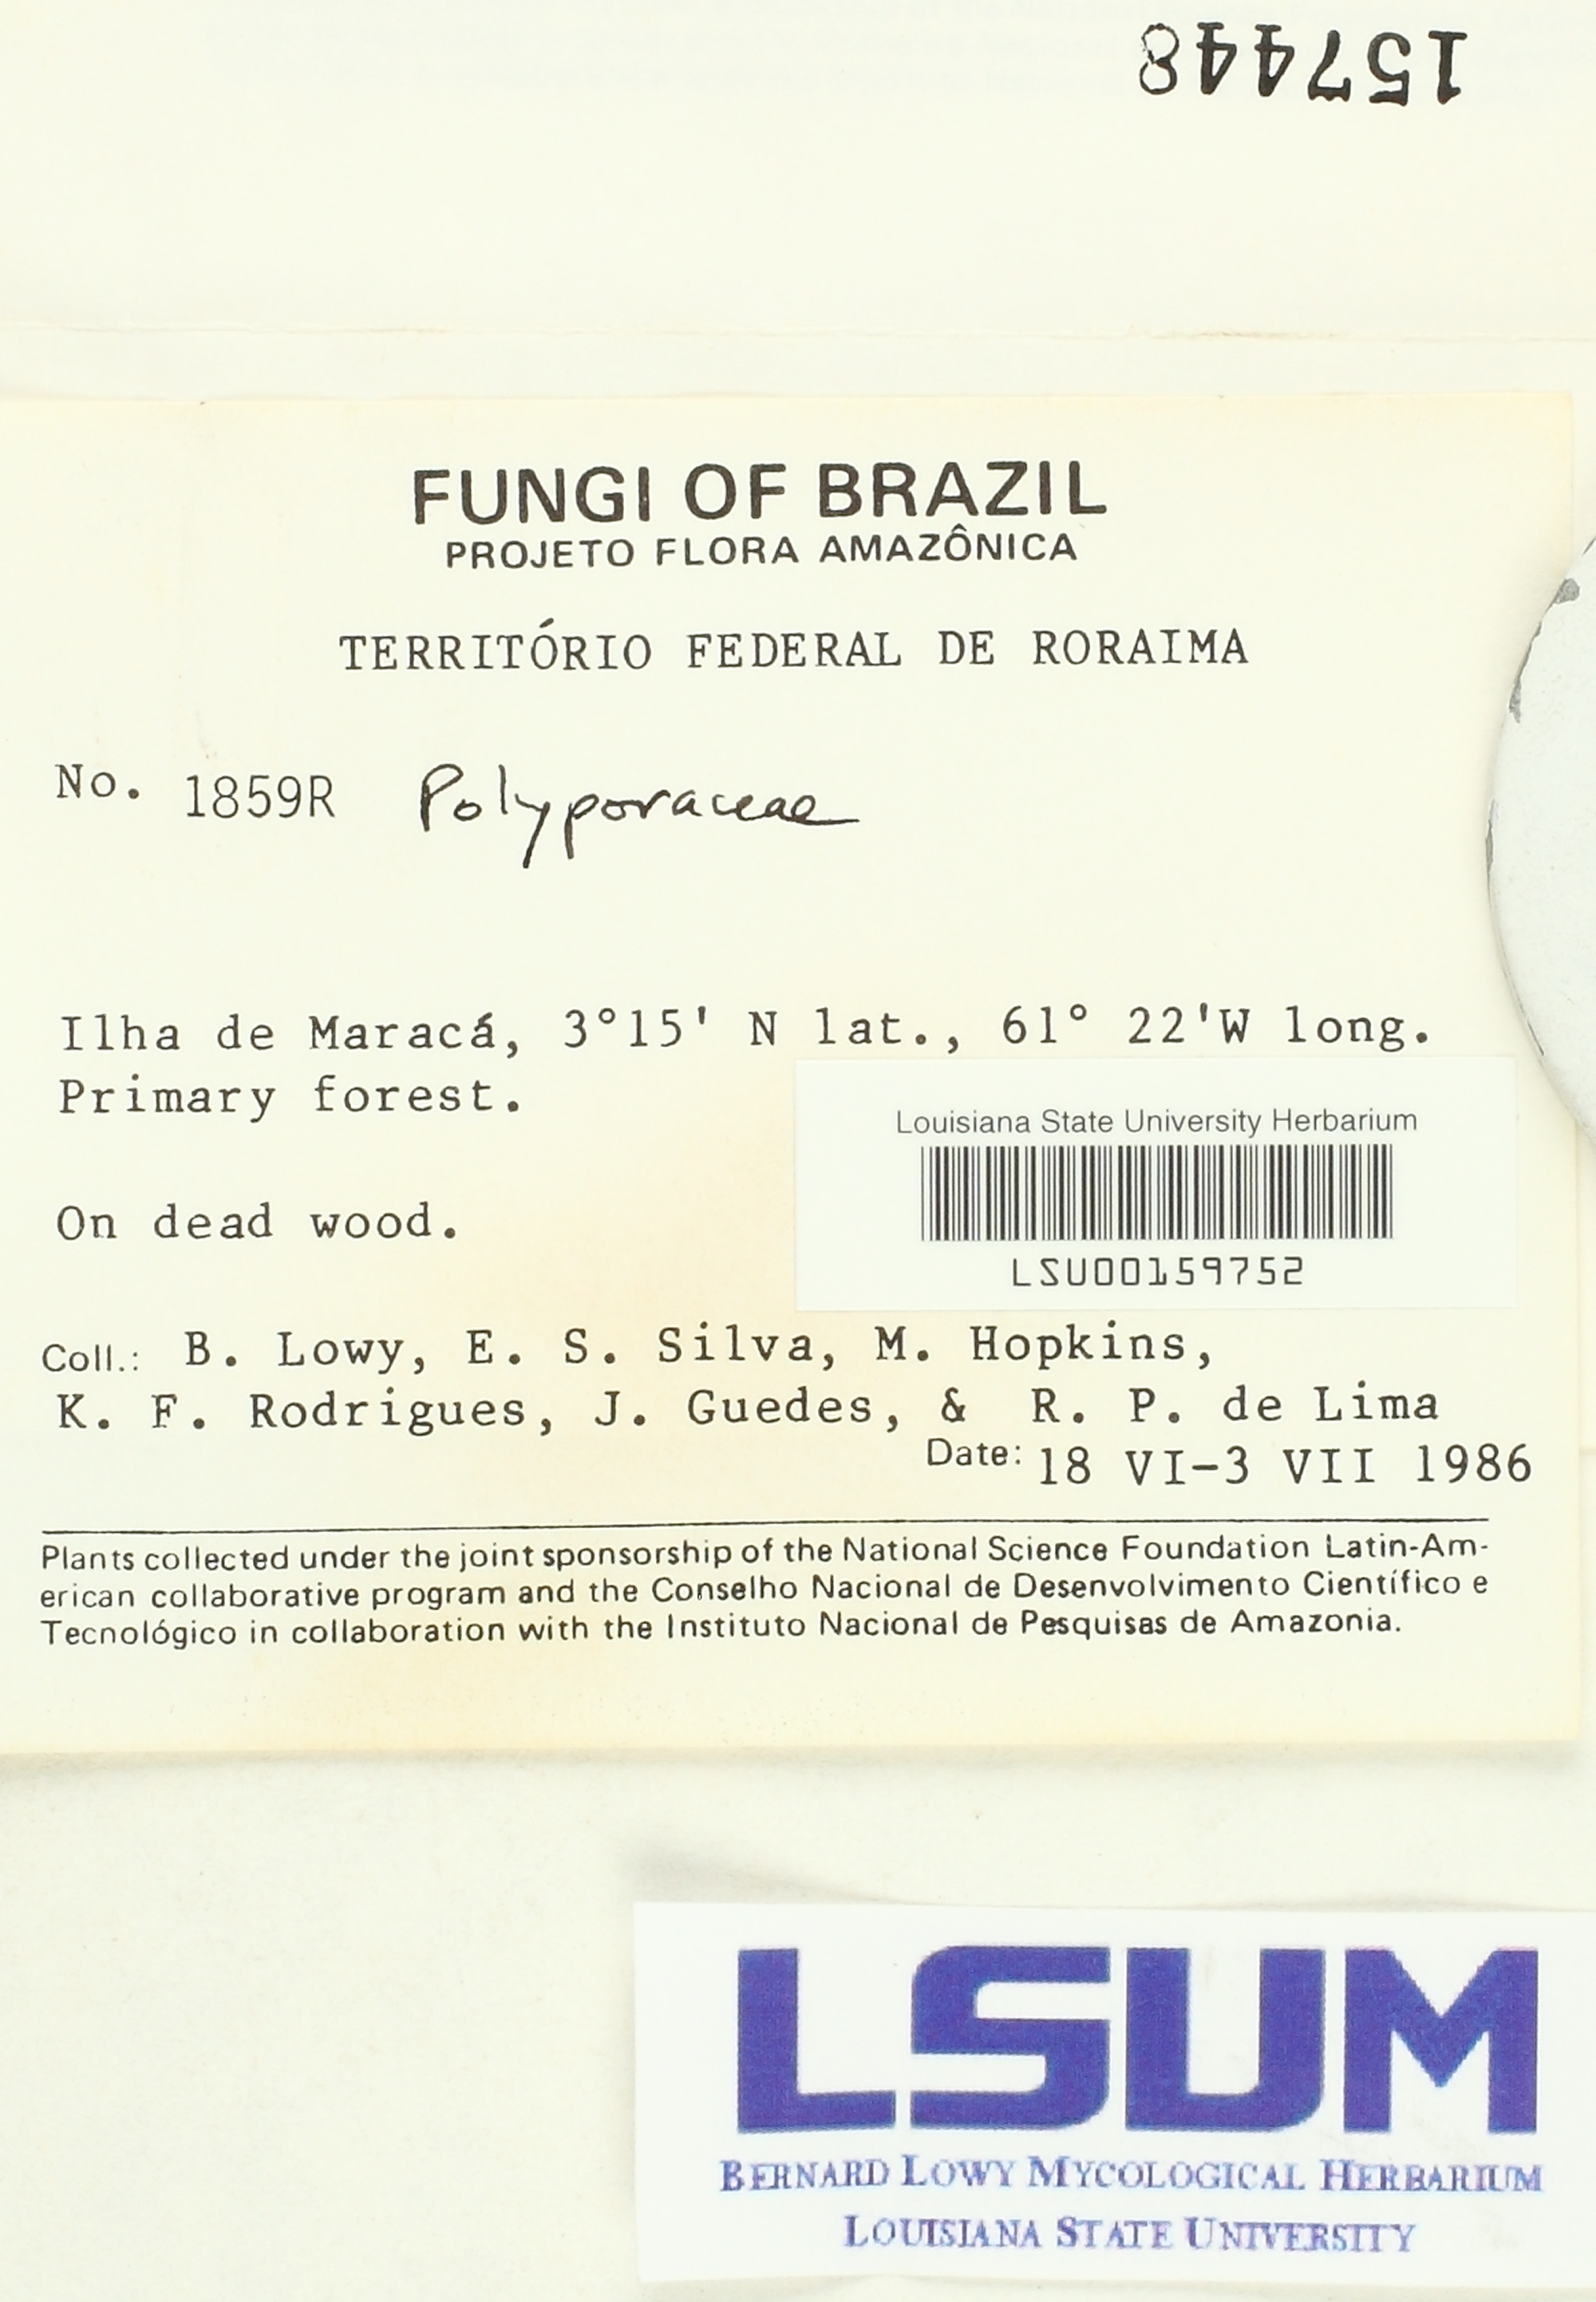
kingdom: Fungi
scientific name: Fungi
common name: Fungi
